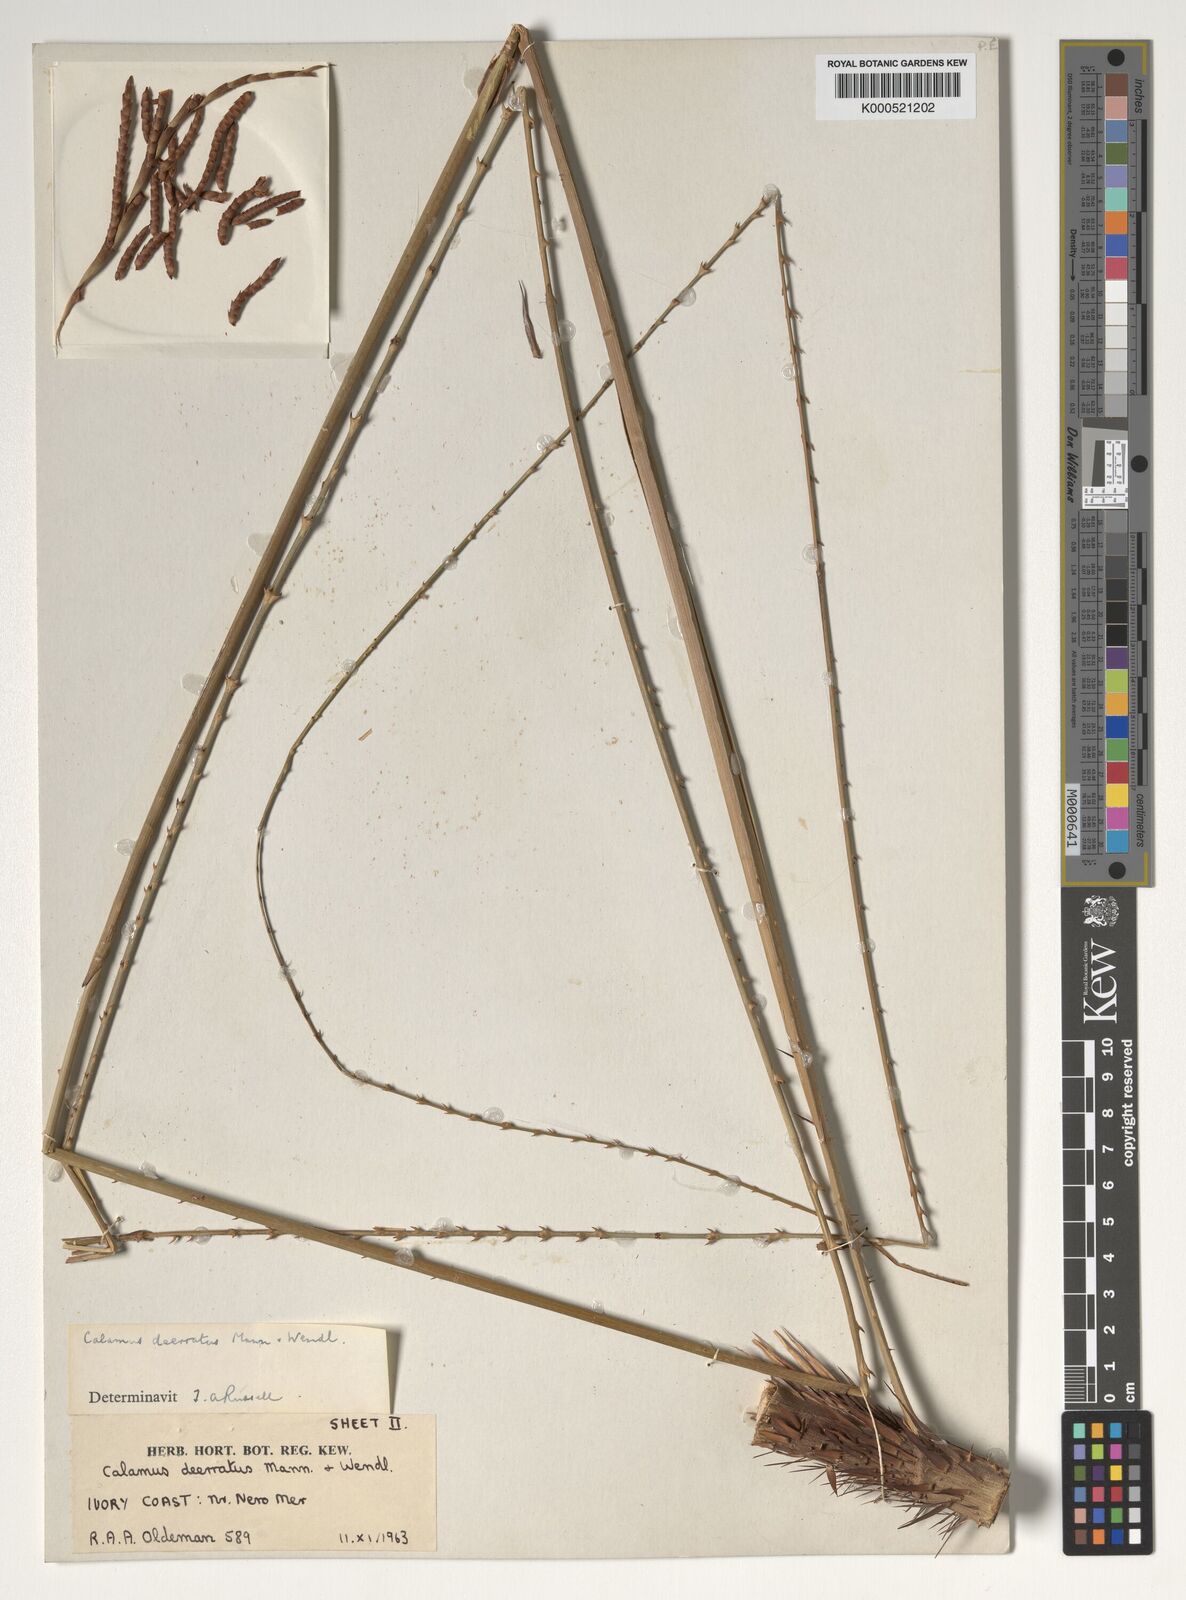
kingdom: Plantae
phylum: Tracheophyta
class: Liliopsida
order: Arecales
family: Arecaceae
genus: Calamus
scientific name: Calamus deerratus
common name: Rattan
